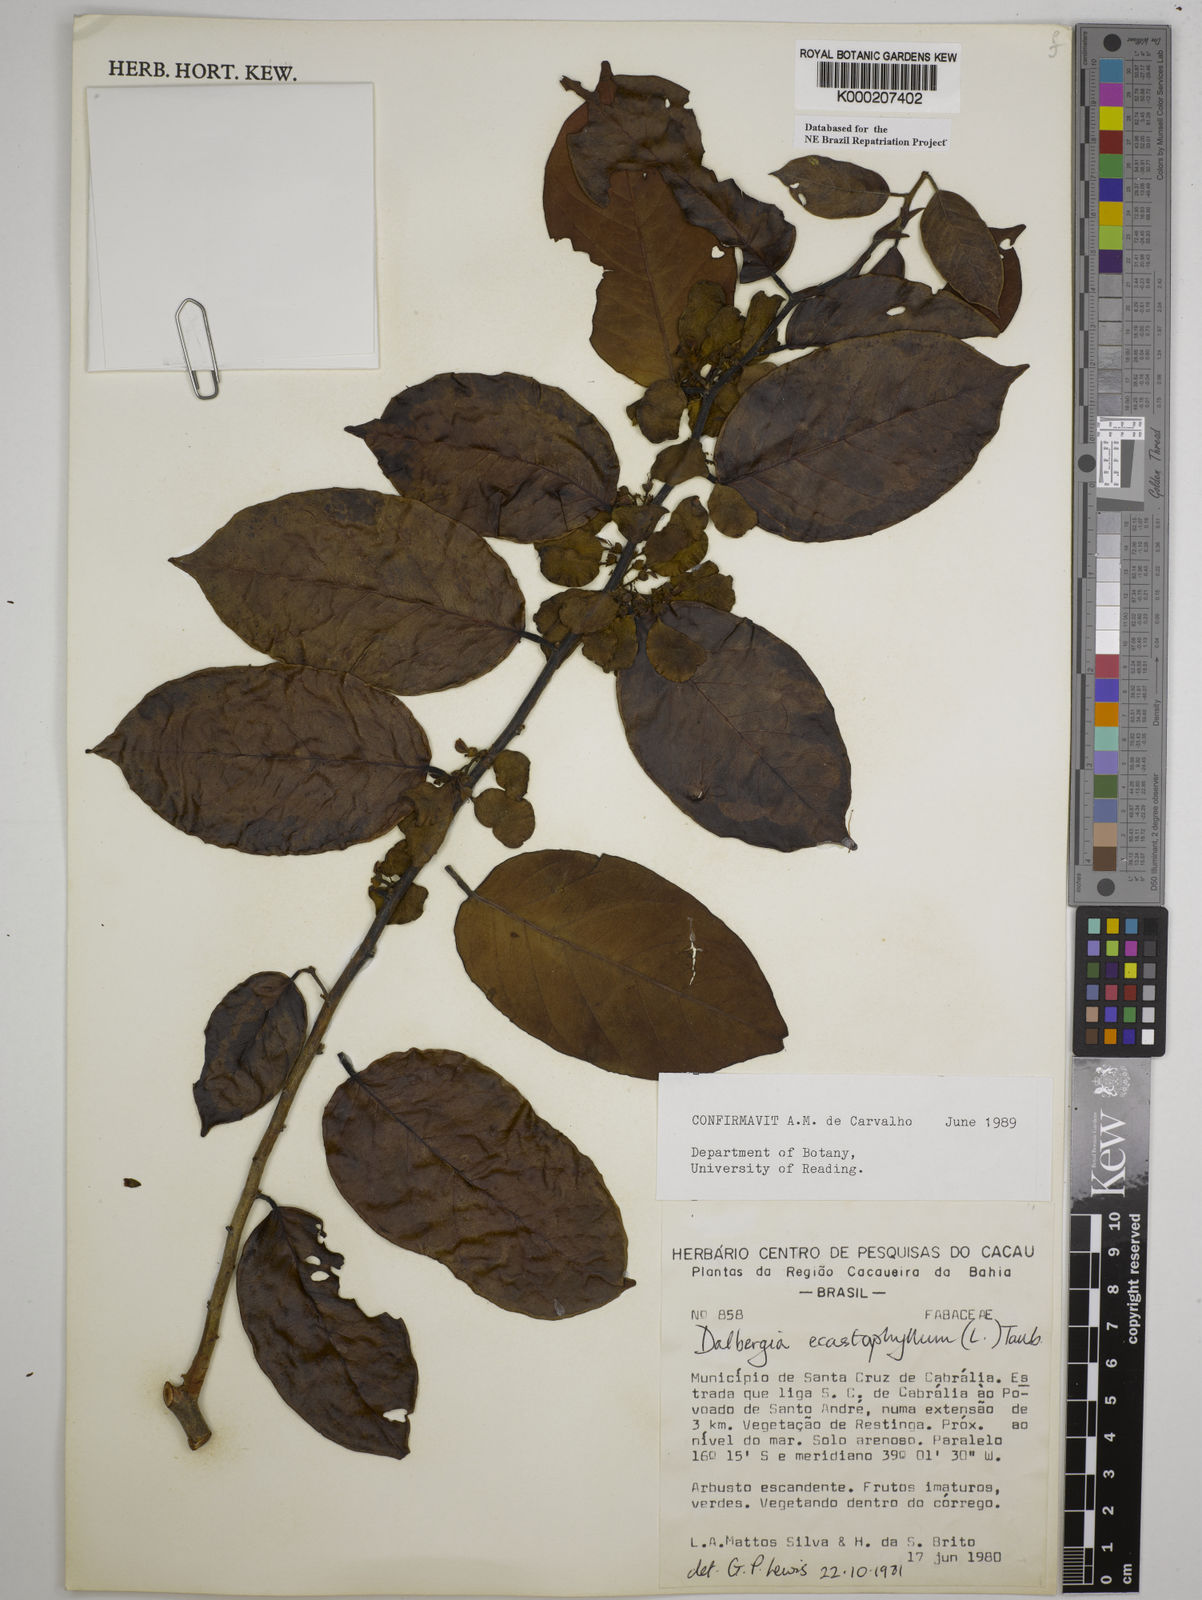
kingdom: Plantae
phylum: Tracheophyta
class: Magnoliopsida
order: Fabales
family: Fabaceae
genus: Dalbergia
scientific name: Dalbergia
